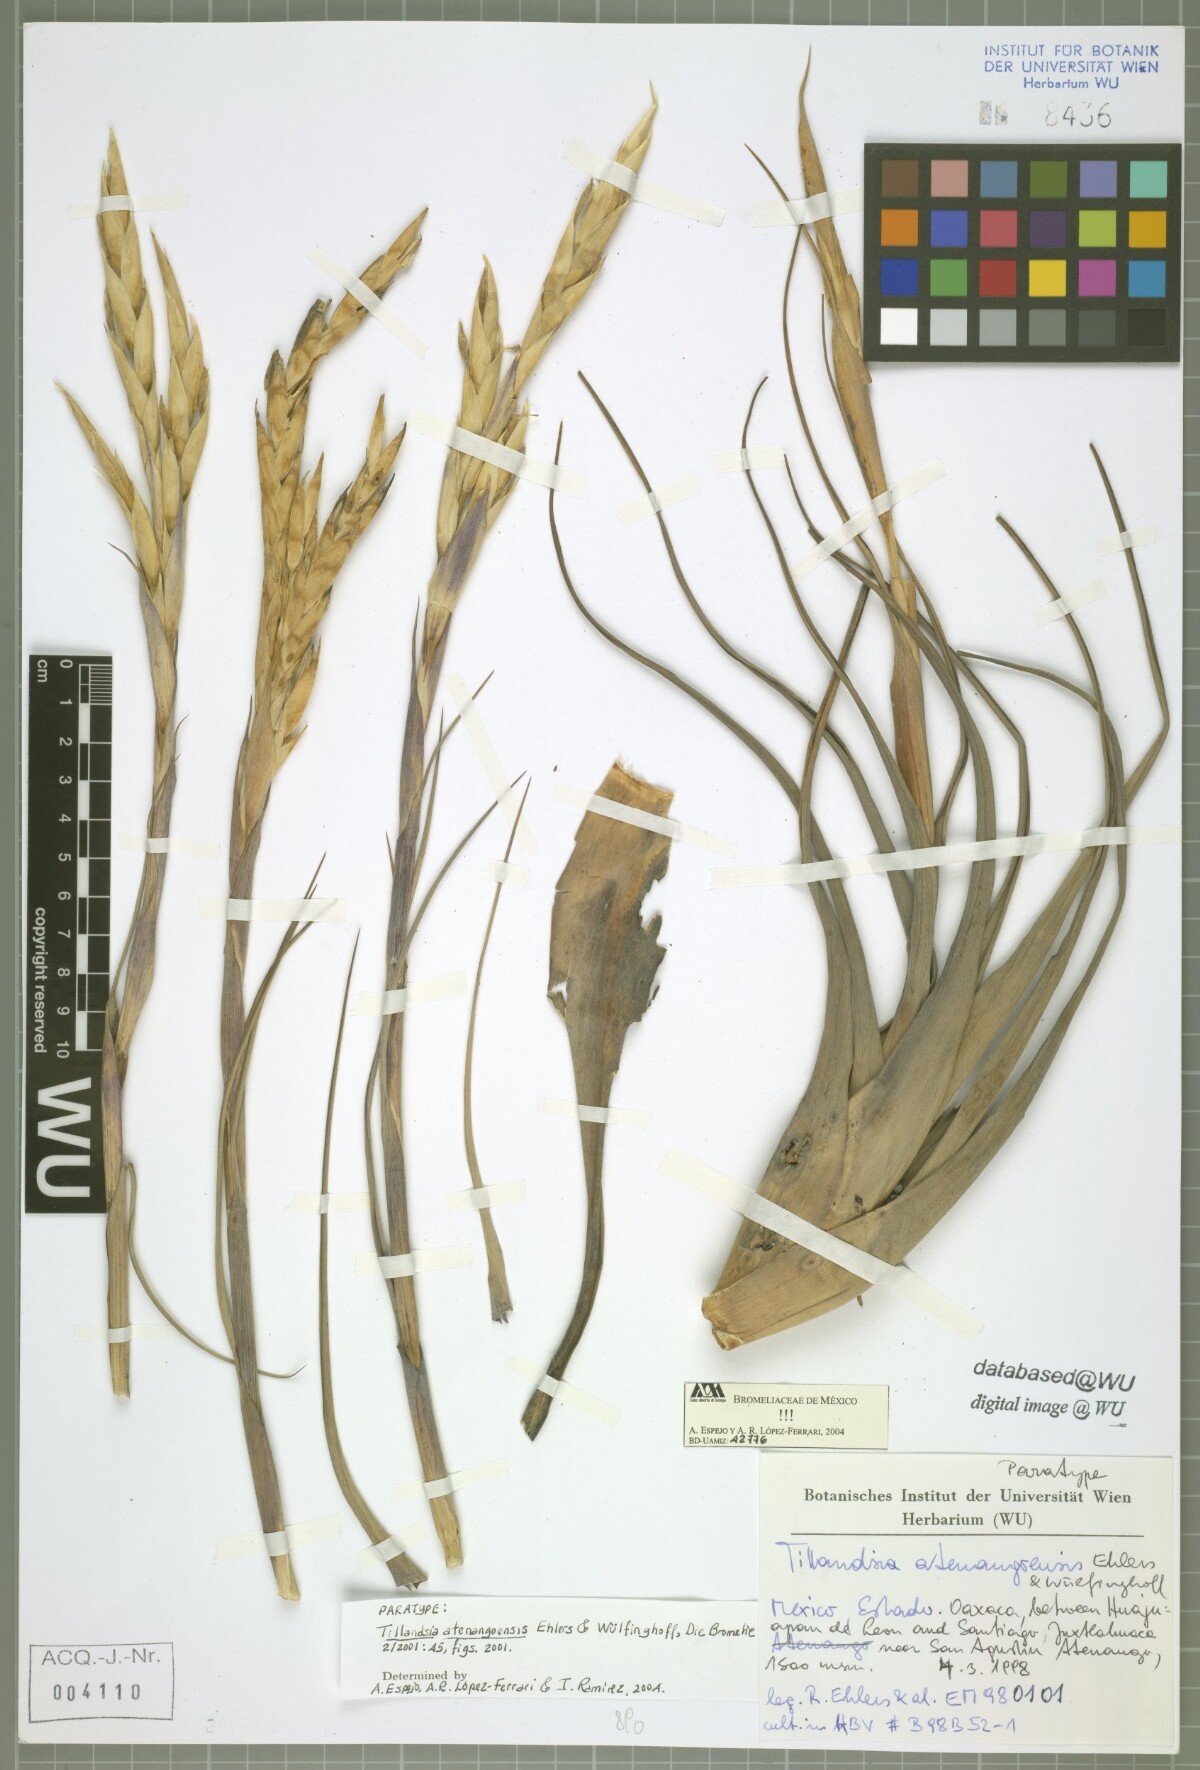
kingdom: Plantae
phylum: Tracheophyta
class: Liliopsida
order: Poales
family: Bromeliaceae
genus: Tillandsia
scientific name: Tillandsia atenangoensis
